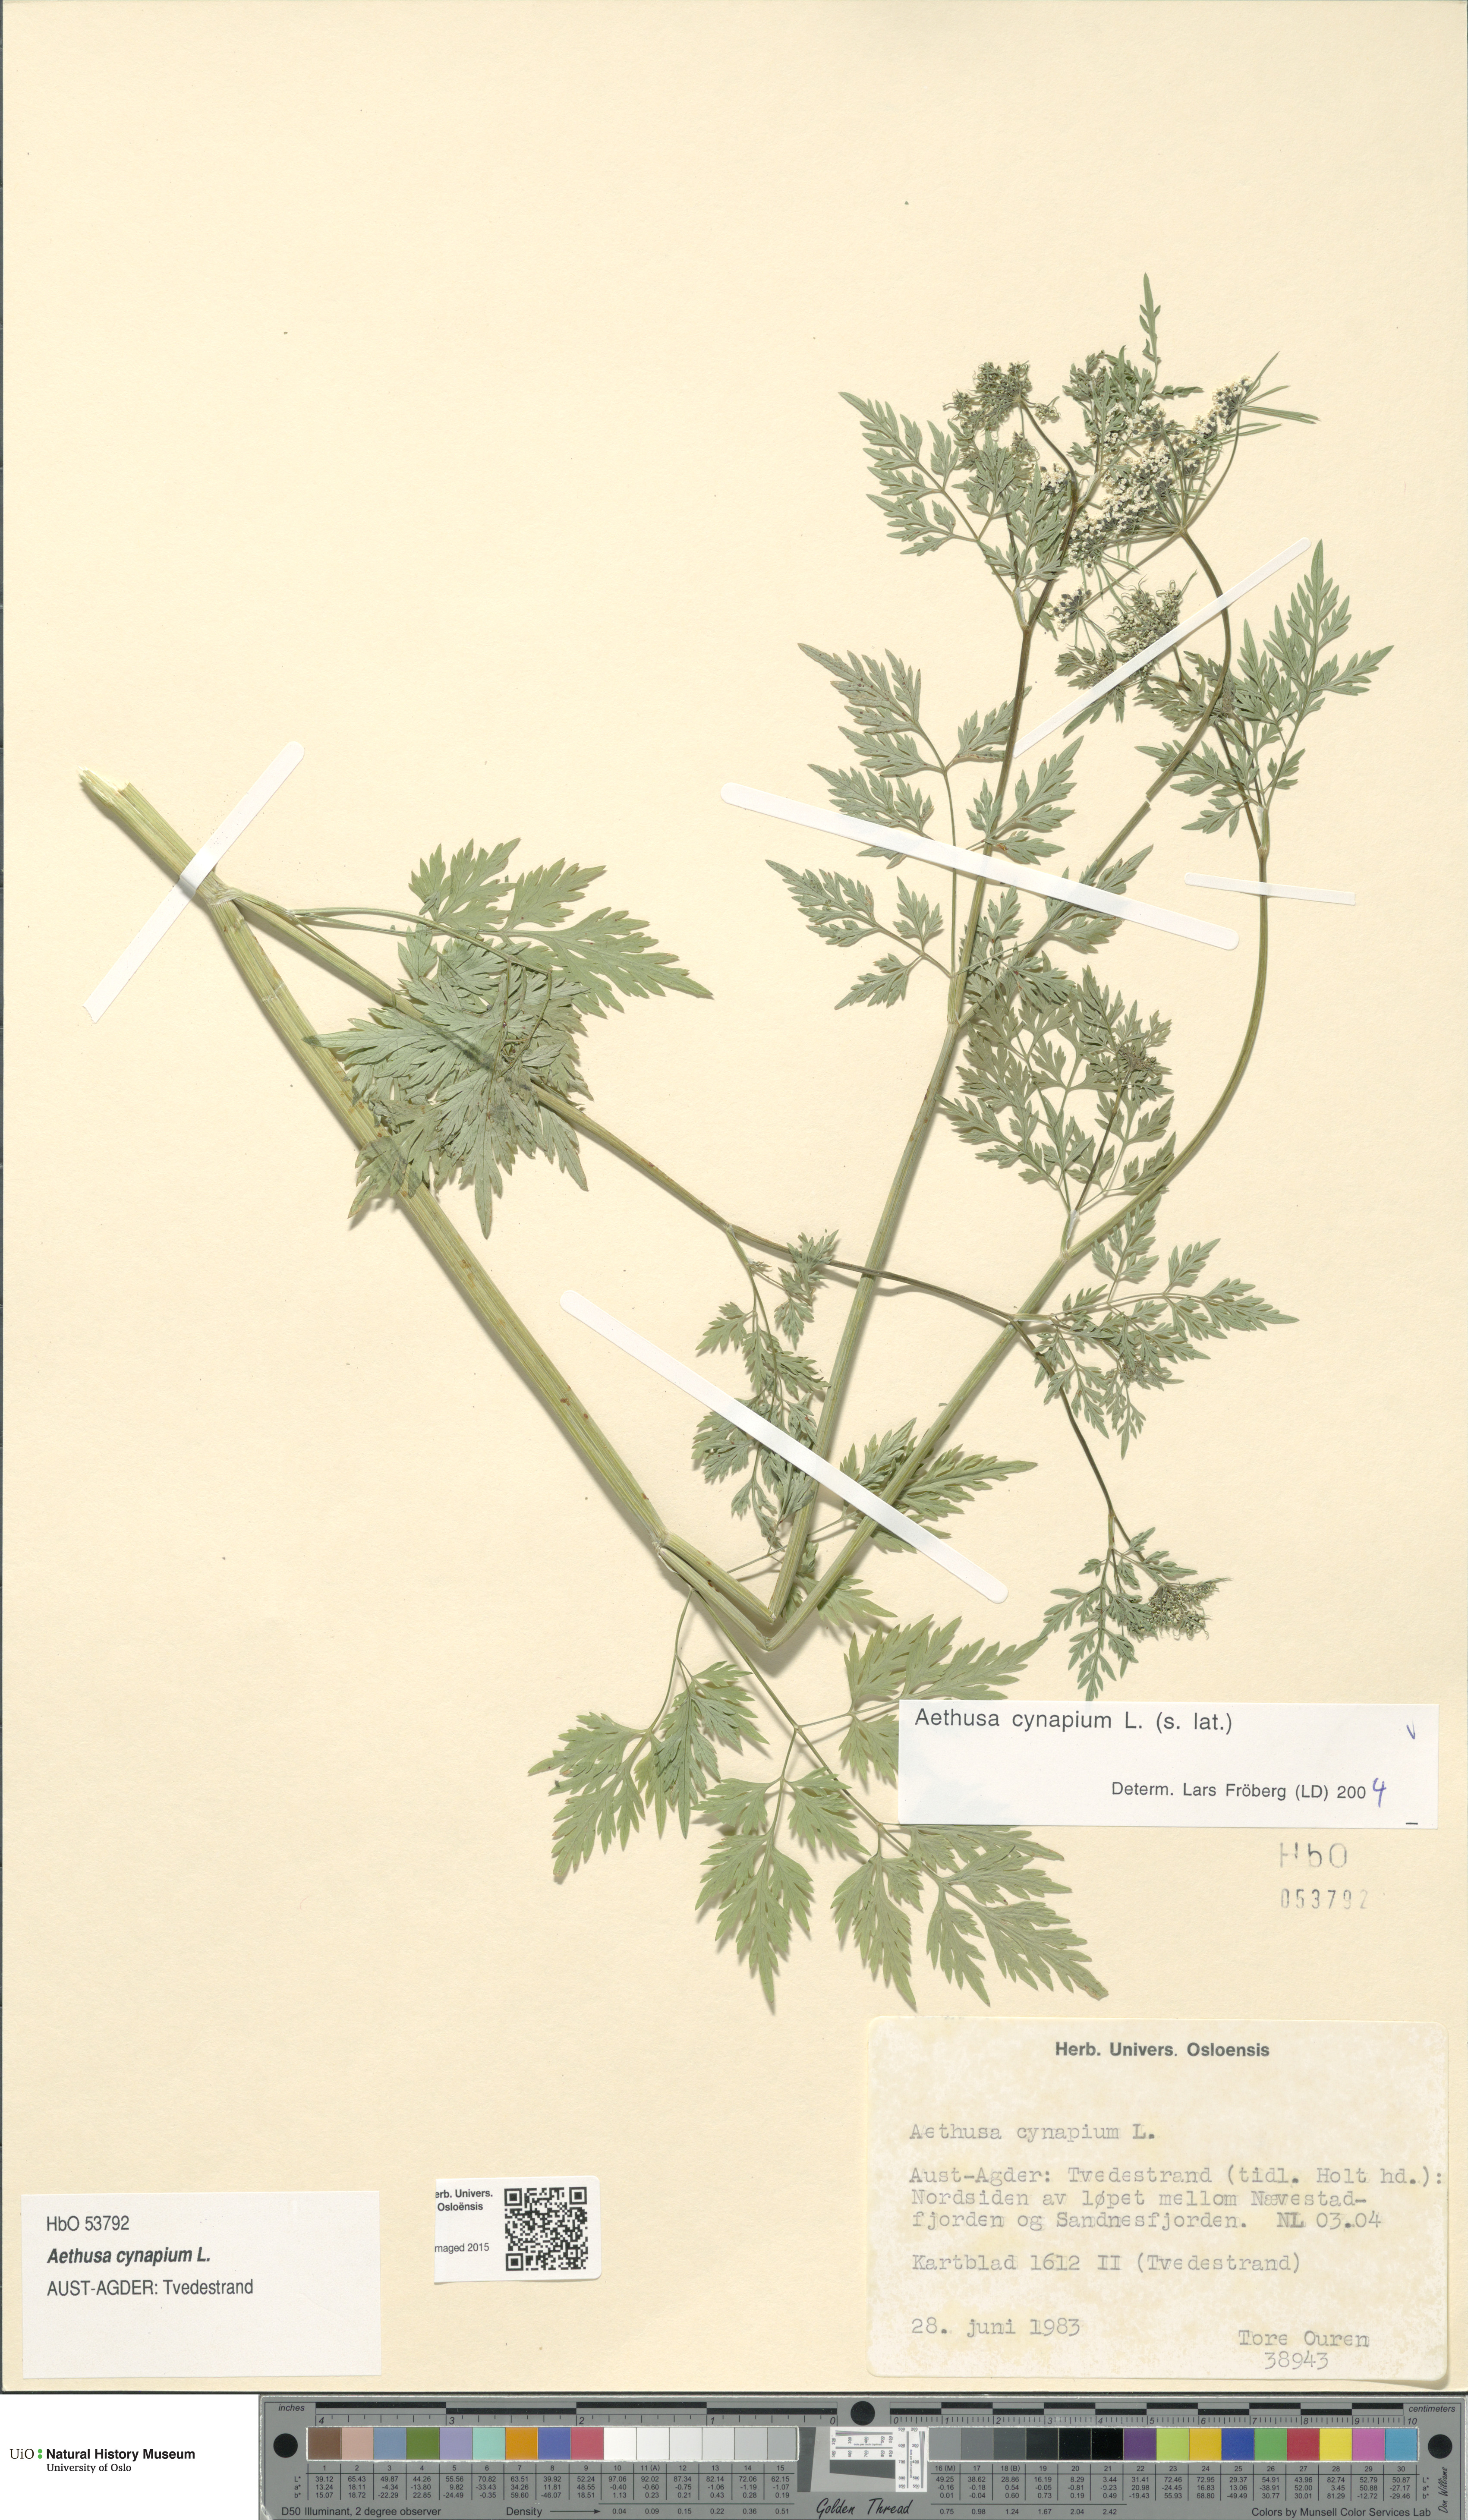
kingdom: Plantae
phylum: Tracheophyta
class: Magnoliopsida
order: Apiales
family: Apiaceae
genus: Aethusa
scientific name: Aethusa cynapium
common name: Fool's parsley
